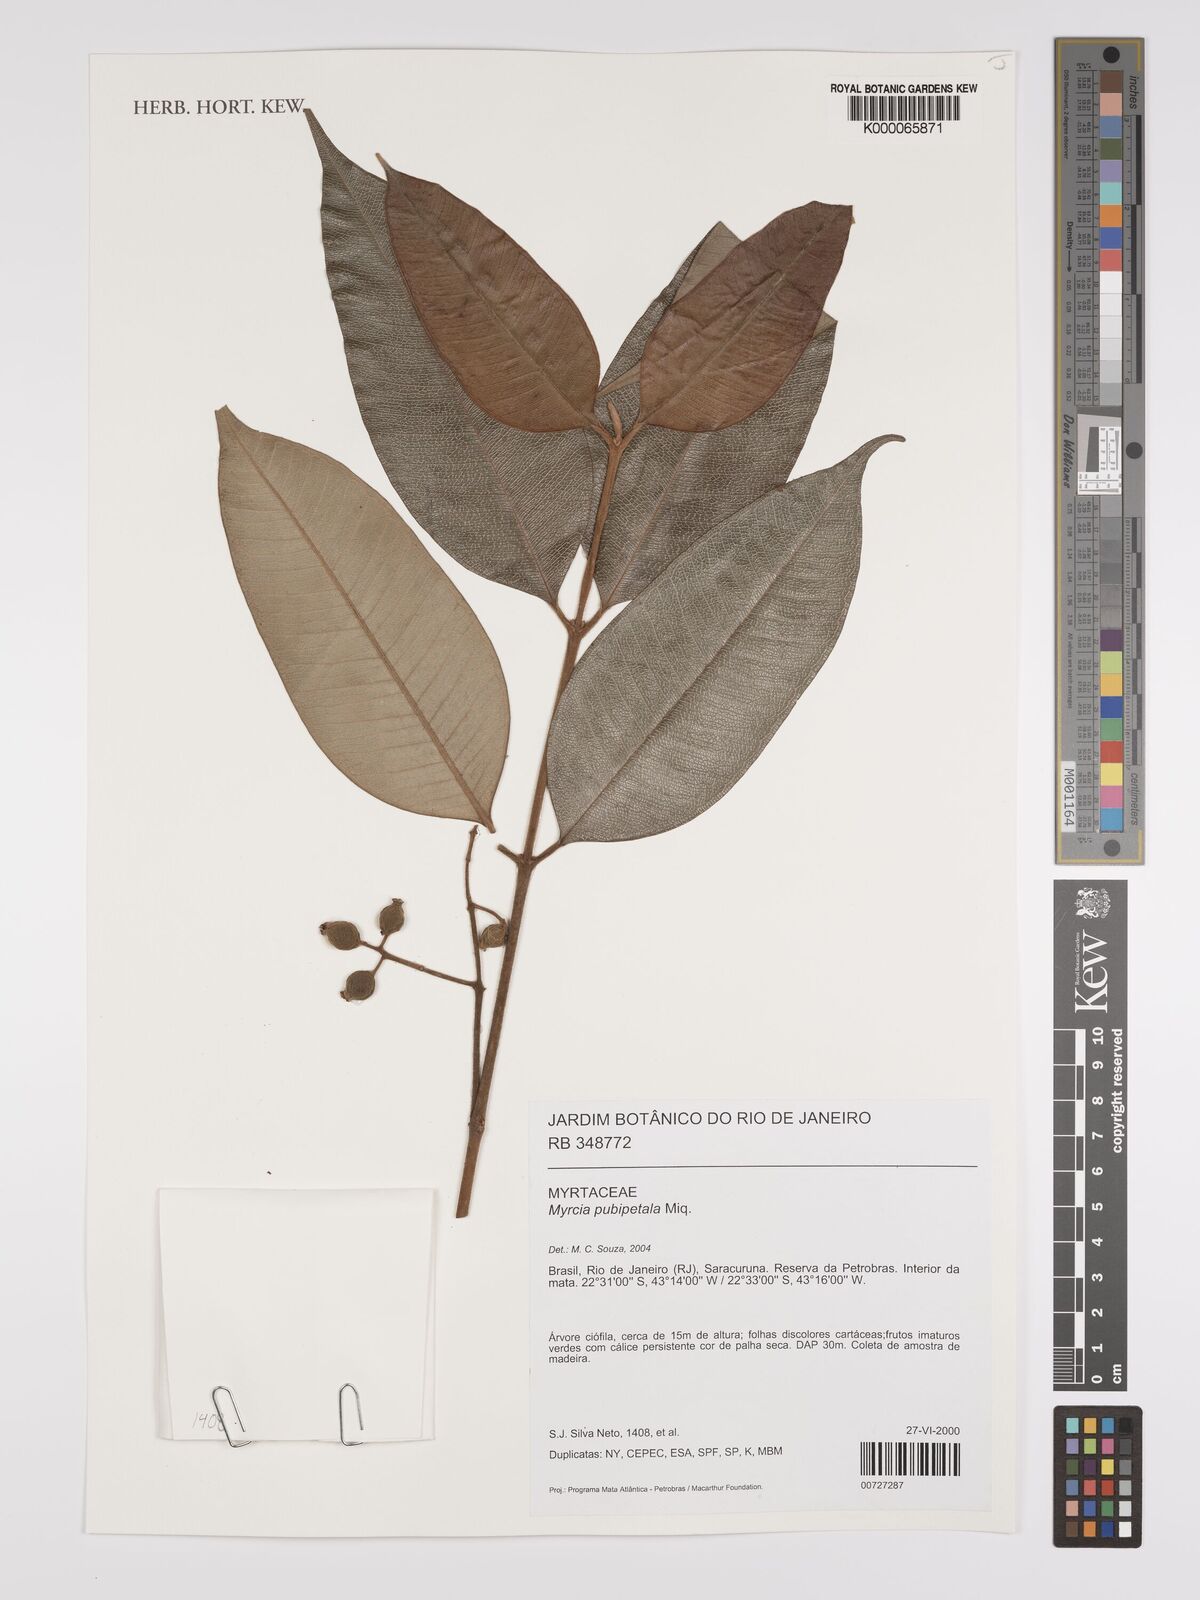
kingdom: Plantae
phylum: Tracheophyta
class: Magnoliopsida
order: Myrtales
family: Myrtaceae
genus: Myrcia
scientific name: Myrcia pubipetala
